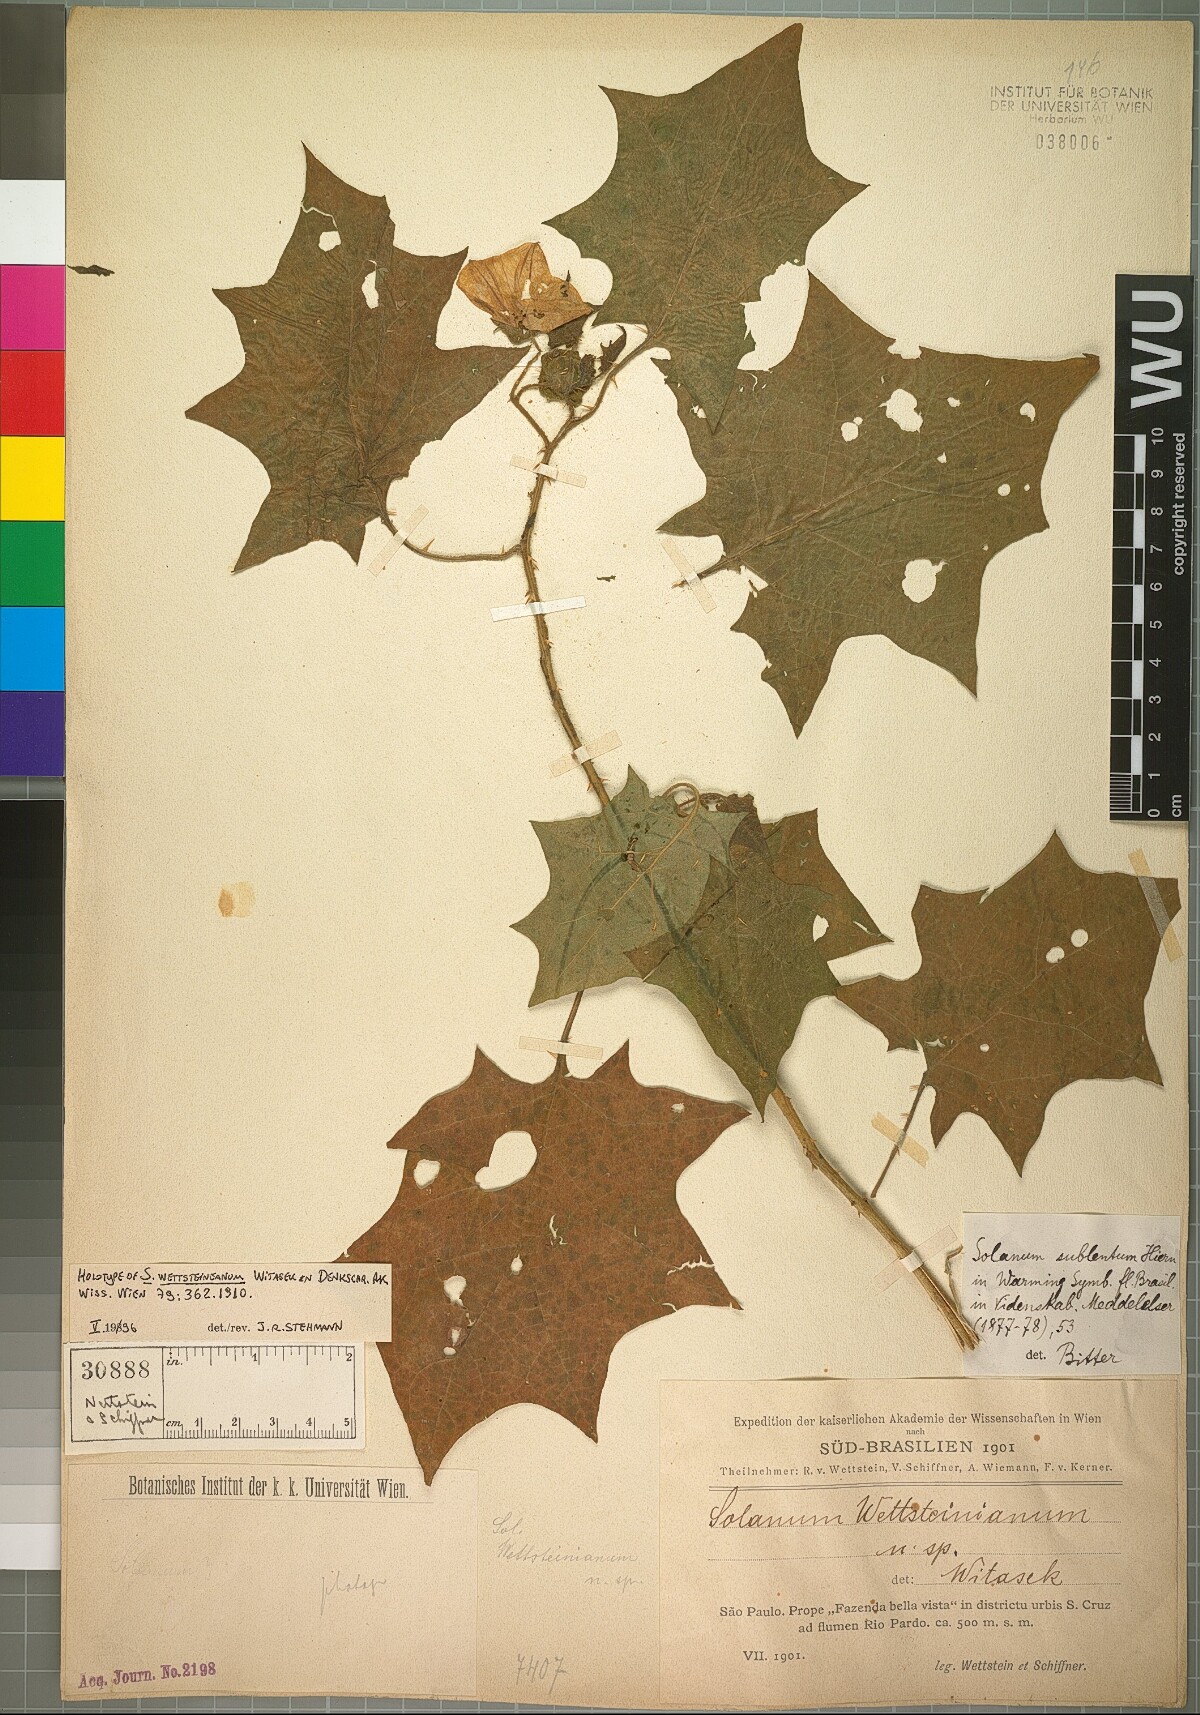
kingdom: Plantae
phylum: Tracheophyta
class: Magnoliopsida
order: Solanales
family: Solanaceae
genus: Solanum
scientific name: Solanum sublentum
